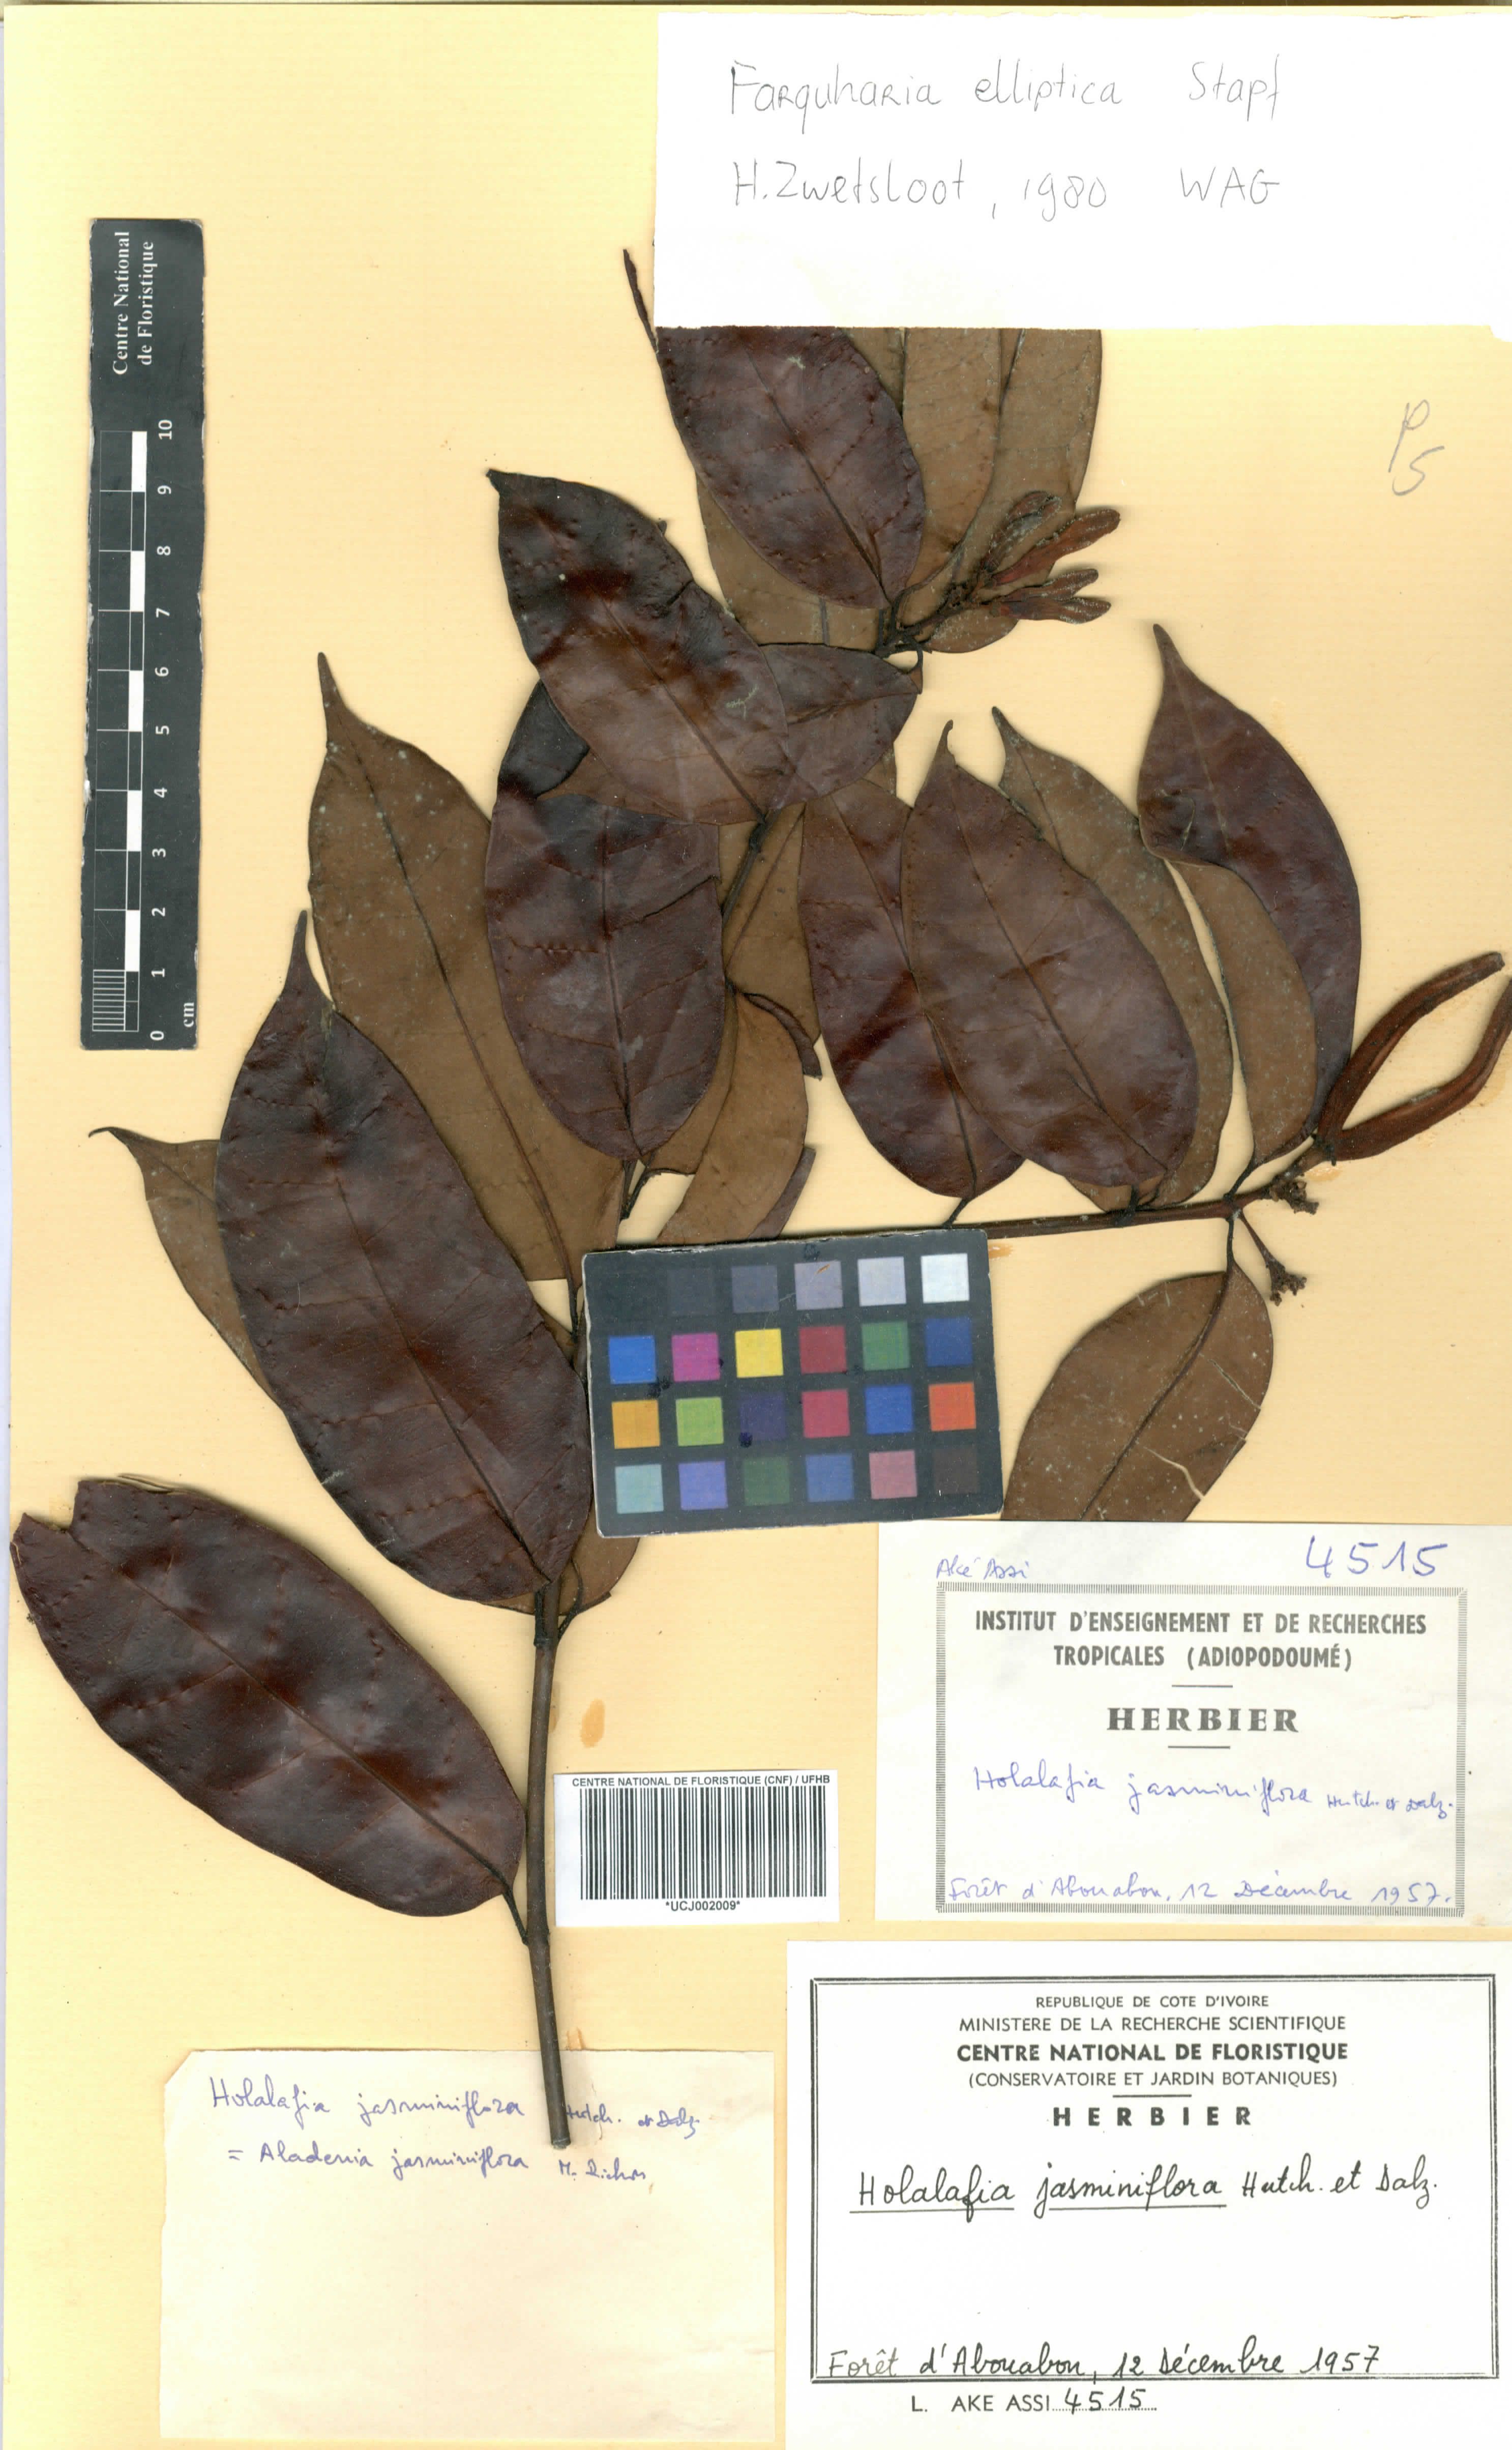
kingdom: Plantae
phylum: Tracheophyta
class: Magnoliopsida
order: Gentianales
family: Apocynaceae
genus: Farquharia
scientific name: Farquharia elliptica
